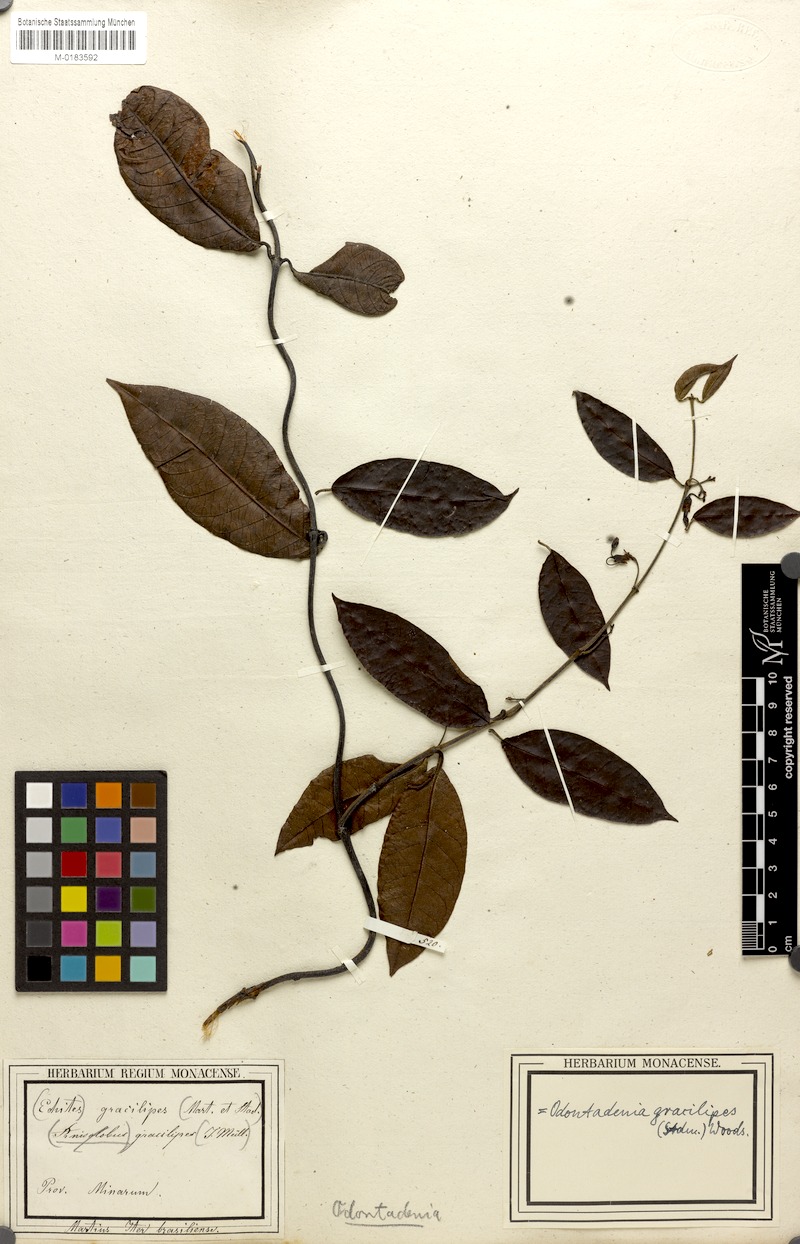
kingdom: Plantae
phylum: Tracheophyta
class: Magnoliopsida
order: Gentianales
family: Apocynaceae
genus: Odontadenia
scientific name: Odontadenia gracilipes
